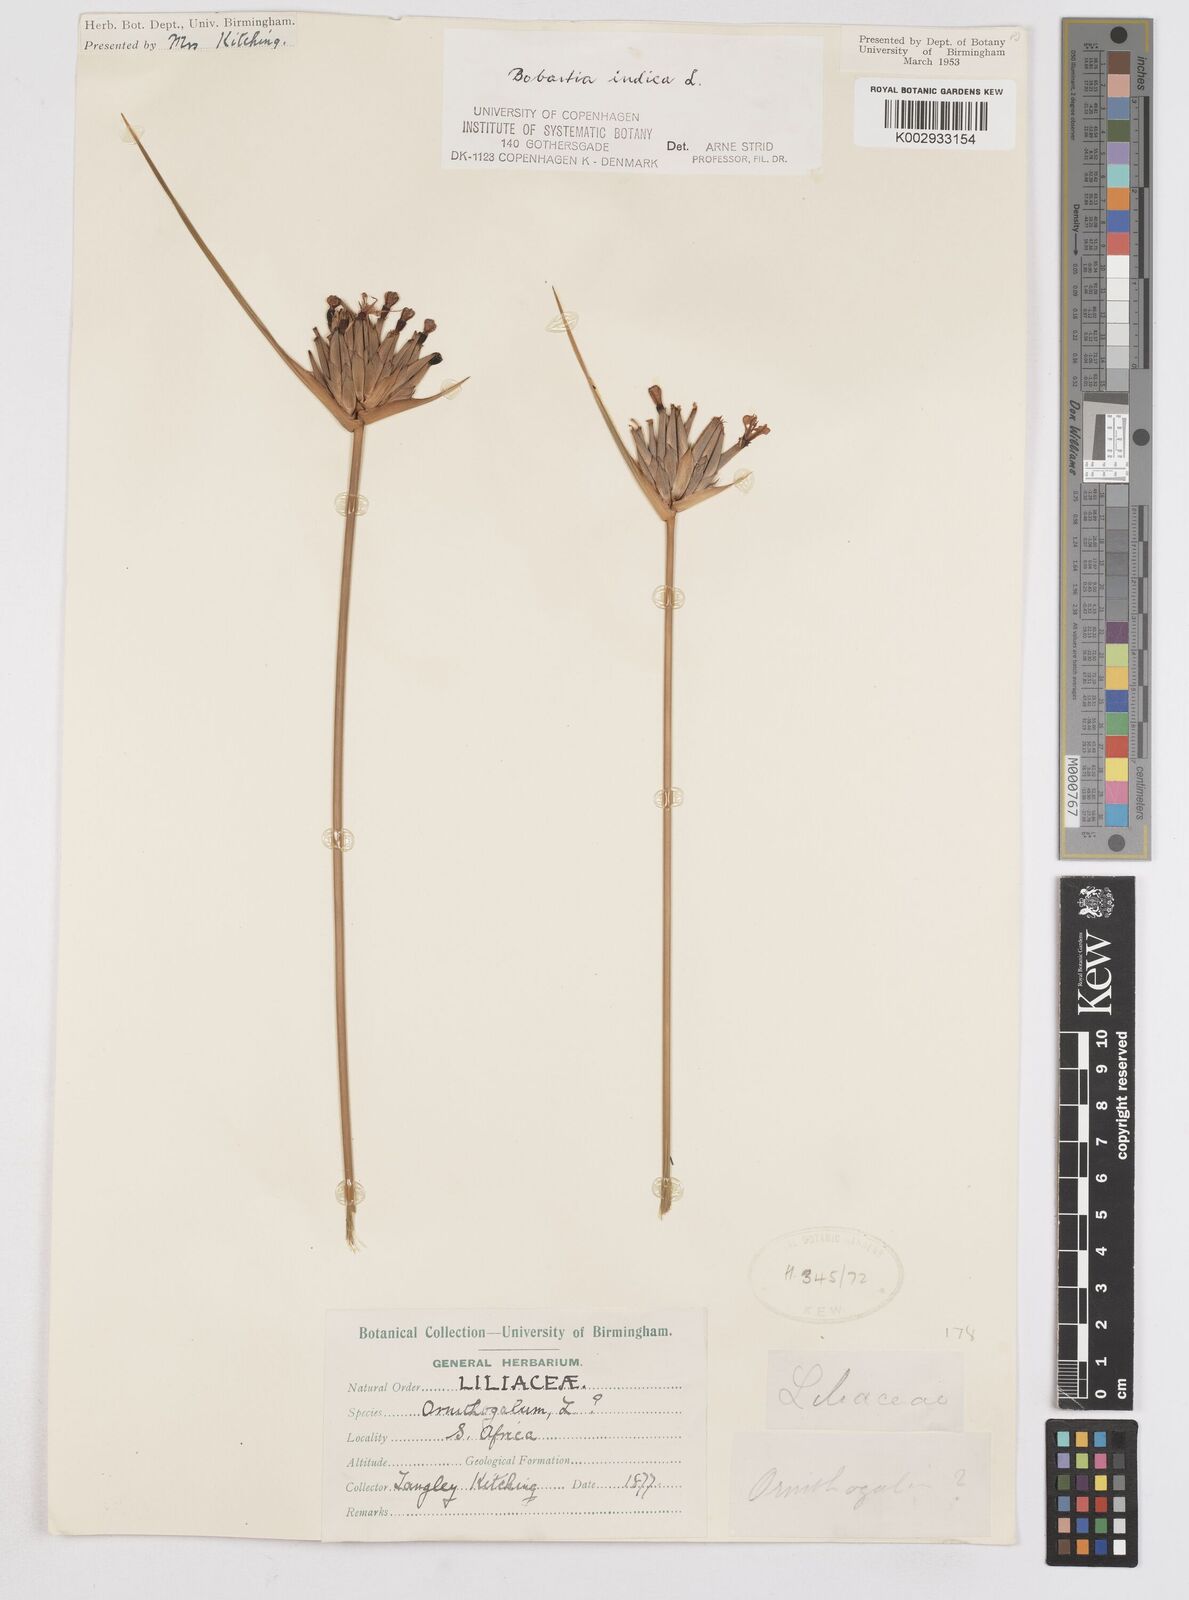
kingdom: Plantae
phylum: Tracheophyta
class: Liliopsida
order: Asparagales
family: Iridaceae
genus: Bobartia
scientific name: Bobartia indica
